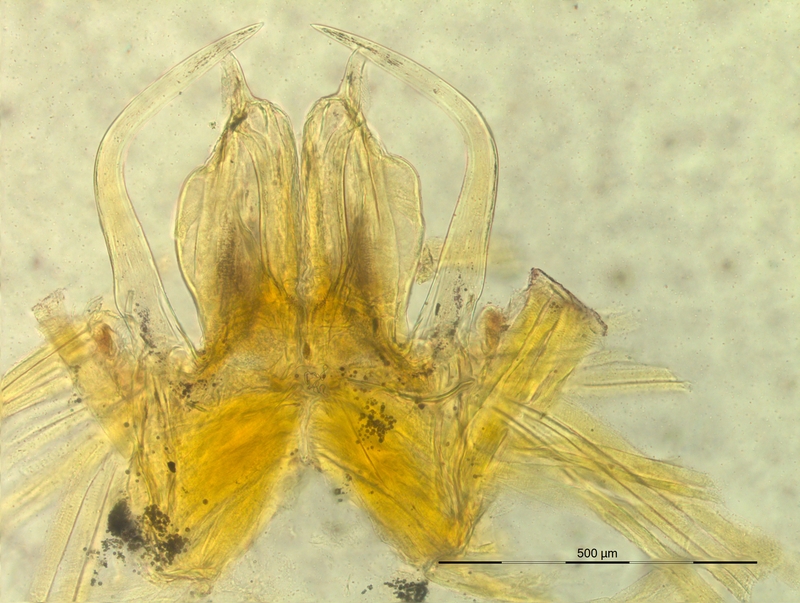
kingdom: Animalia
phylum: Arthropoda
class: Diplopoda
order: Chordeumatida
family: Craspedosomatidae
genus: Oxydactylon
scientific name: Oxydactylon apenninorum
